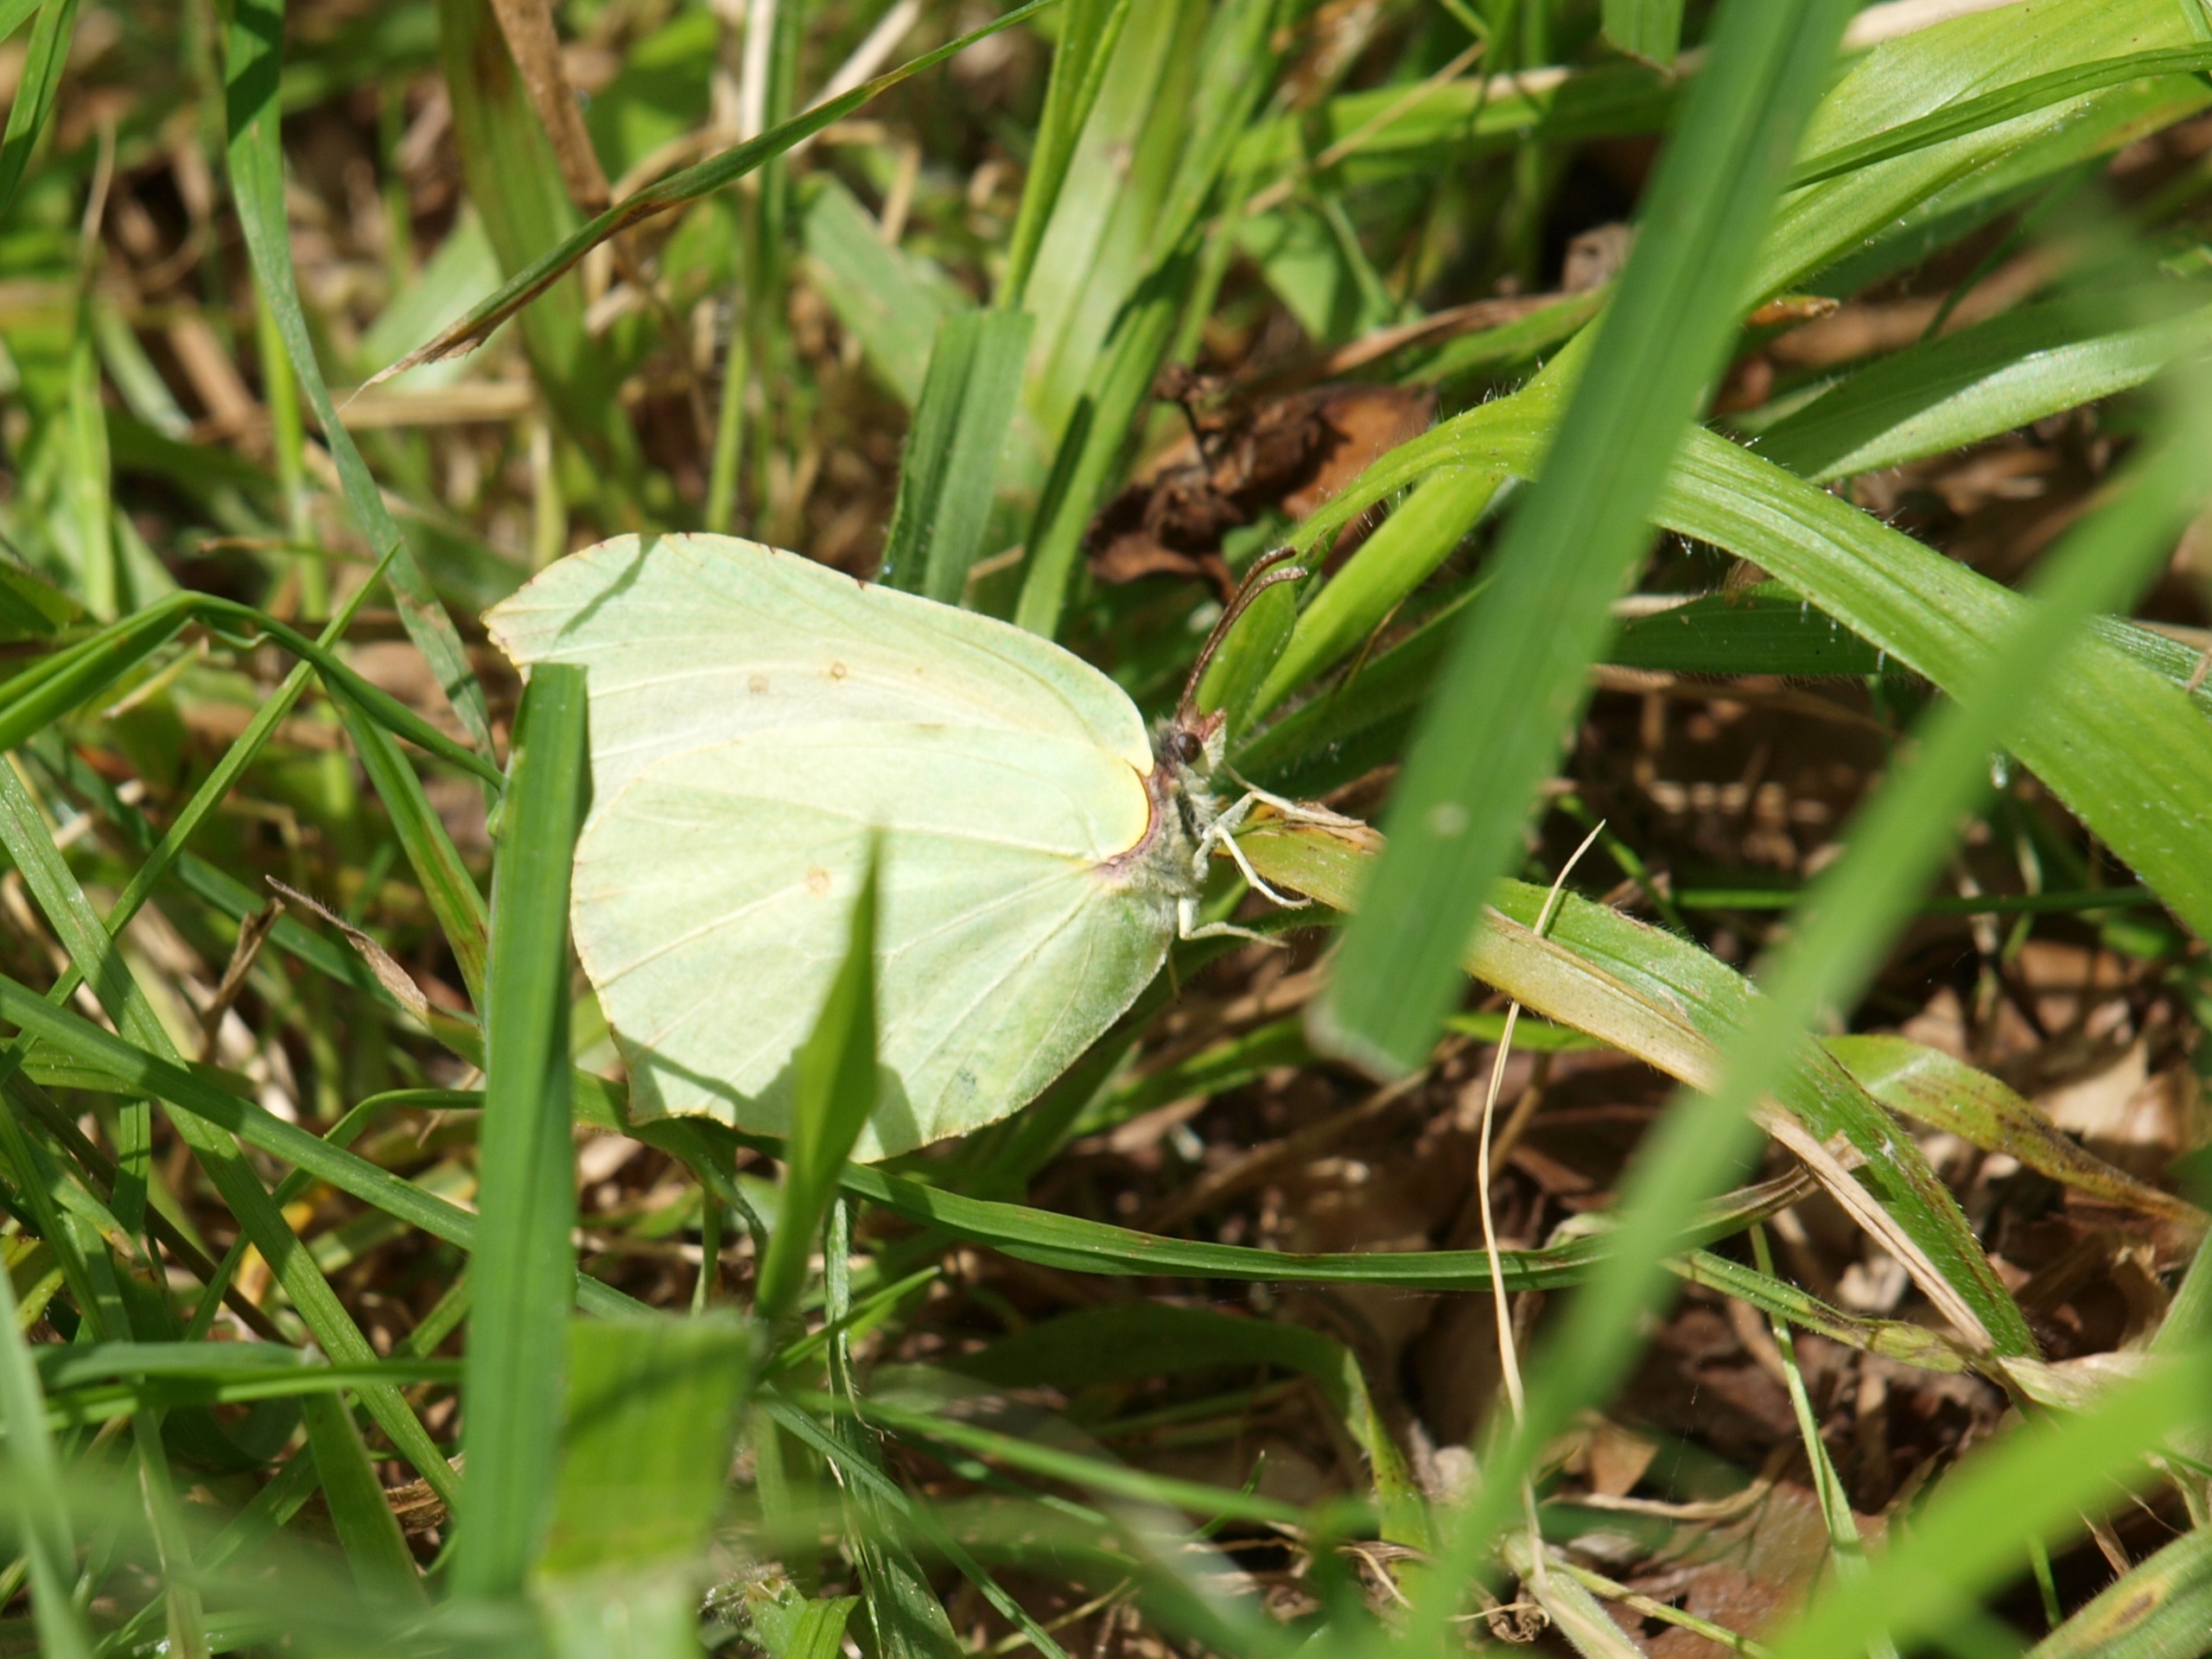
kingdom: Animalia
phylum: Arthropoda
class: Insecta
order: Lepidoptera
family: Pieridae
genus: Gonepteryx
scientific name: Gonepteryx rhamni
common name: Citronsommerfugl
